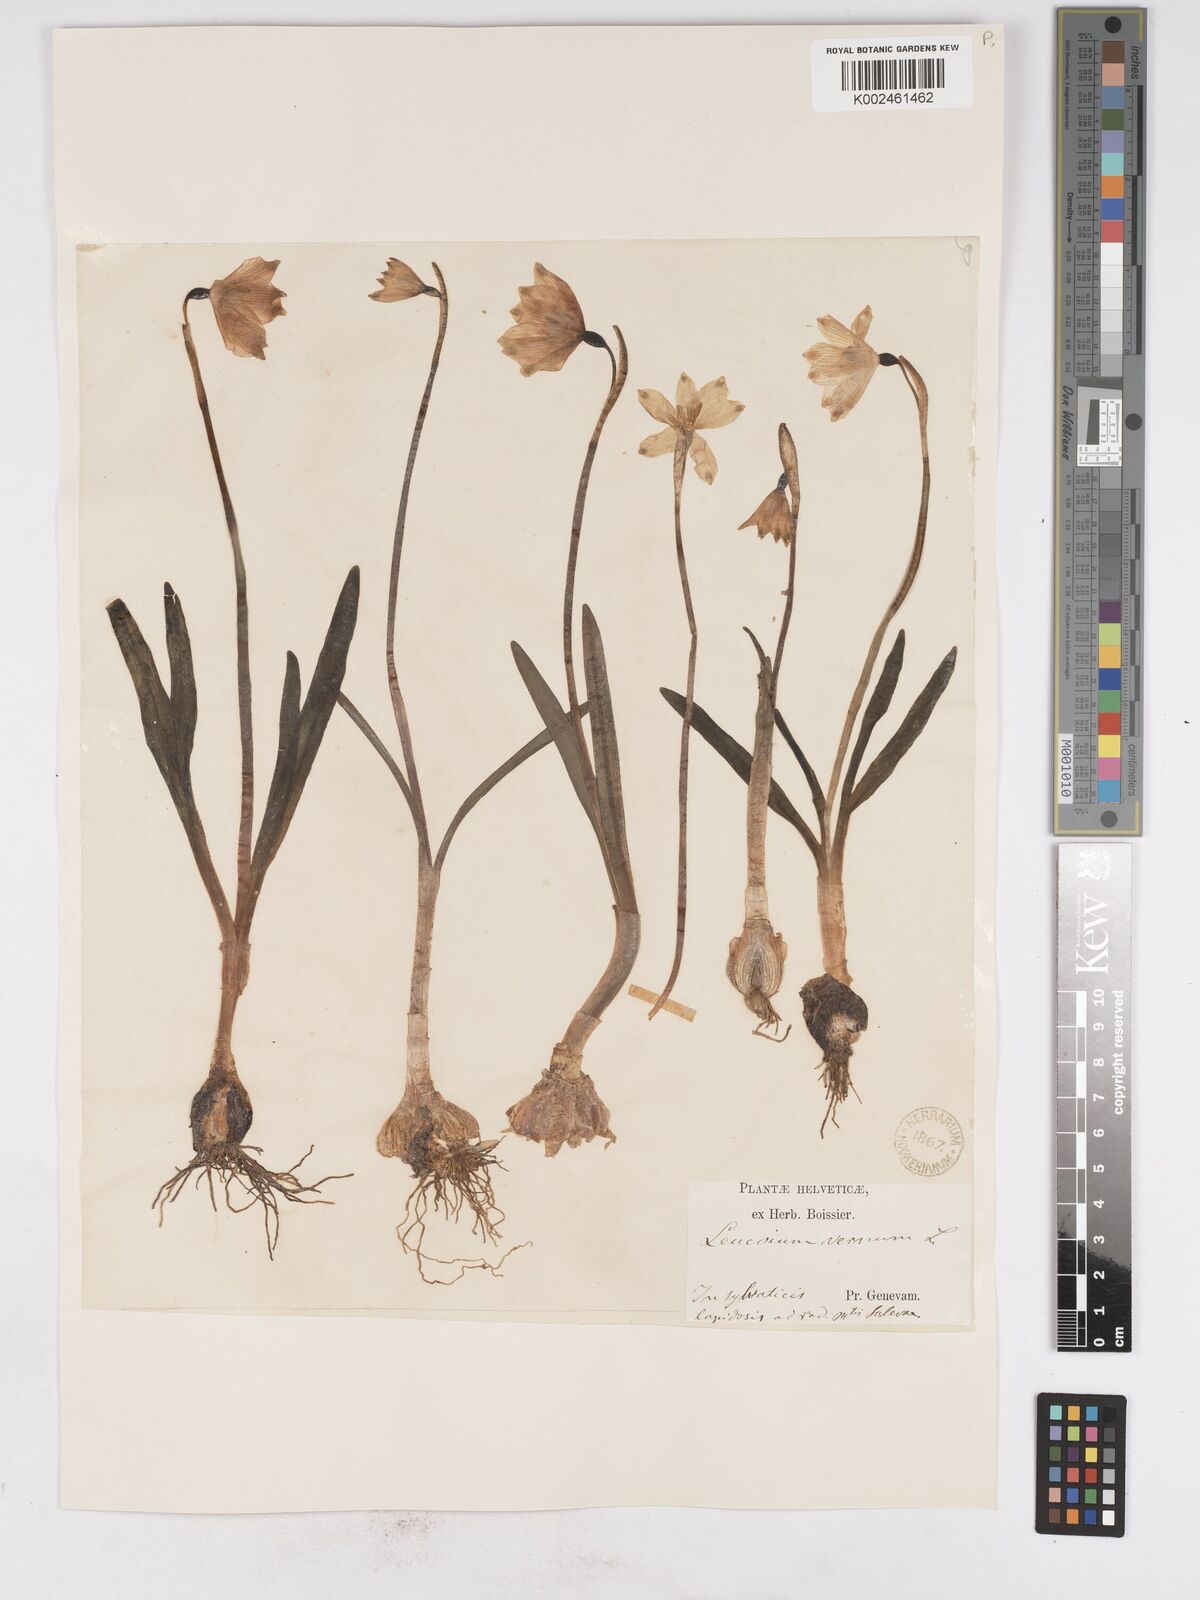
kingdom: Plantae
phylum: Tracheophyta
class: Liliopsida
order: Asparagales
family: Amaryllidaceae
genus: Leucojum
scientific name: Leucojum vernum
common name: Spring snowflake
